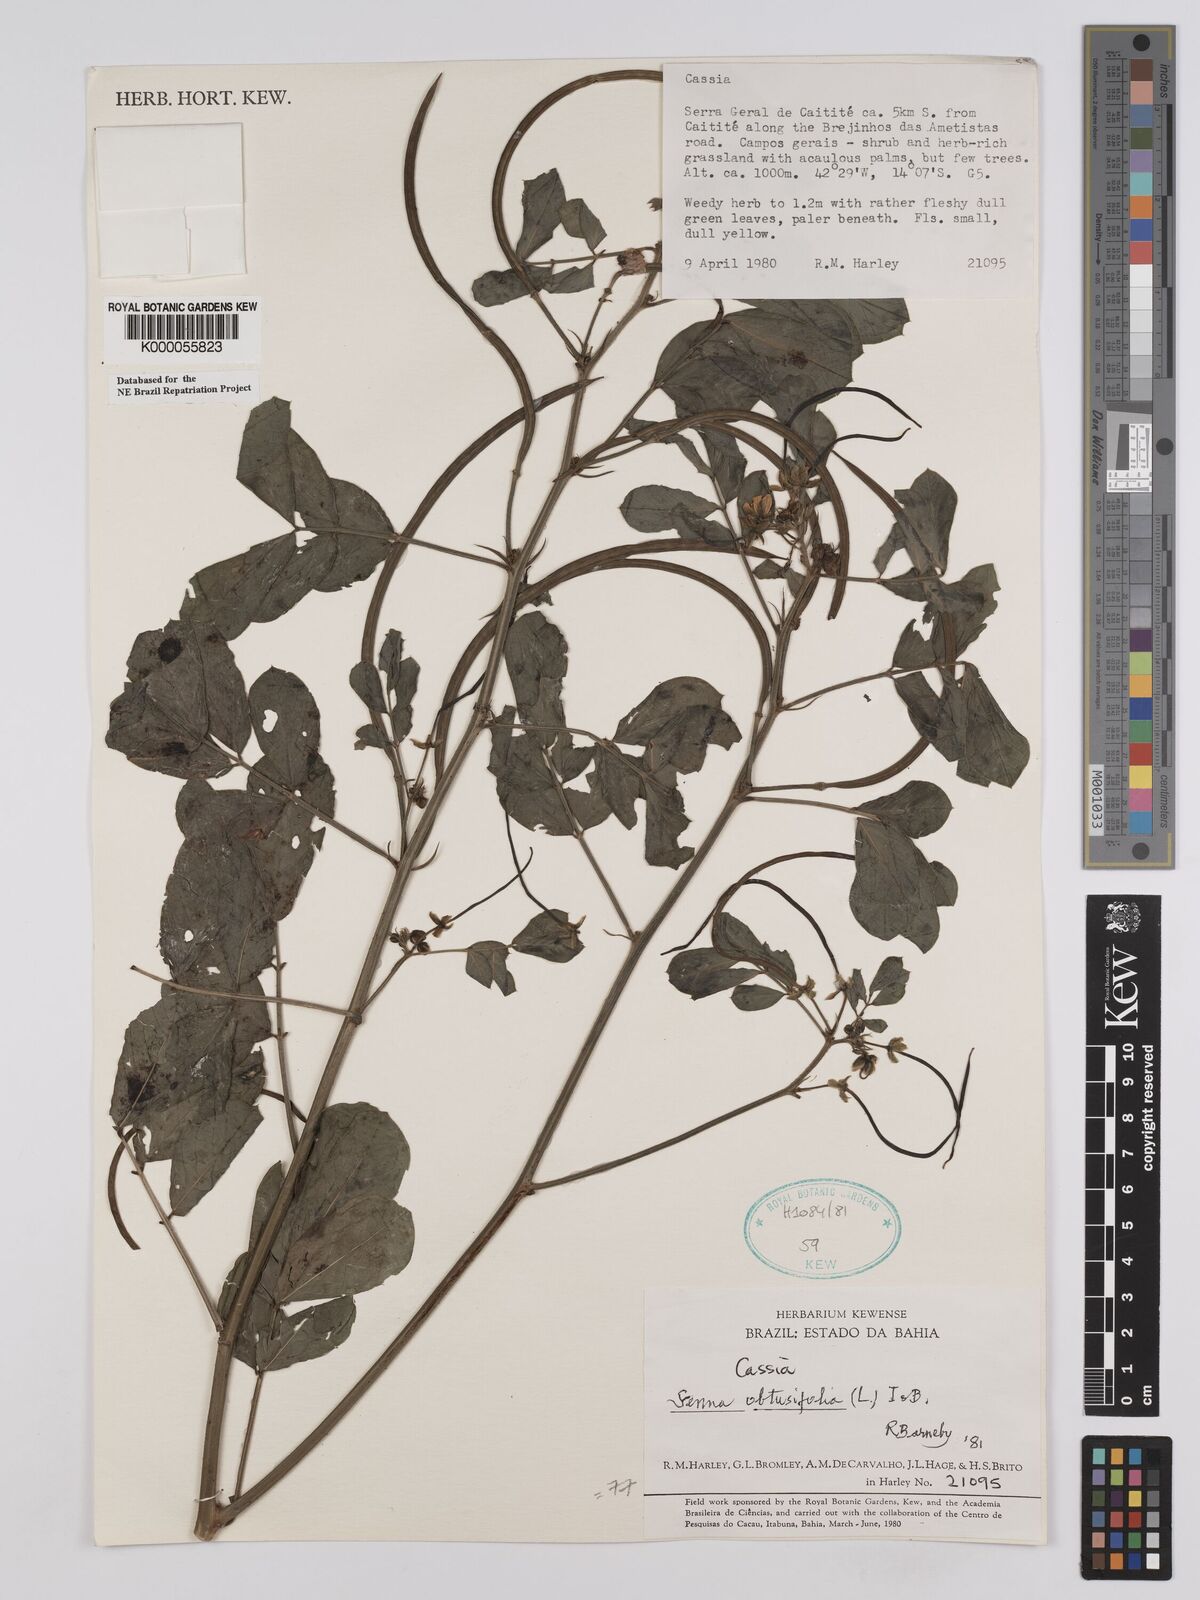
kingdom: Plantae
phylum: Tracheophyta
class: Magnoliopsida
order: Fabales
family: Fabaceae
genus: Senna
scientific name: Senna obtusifolia
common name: Java-bean
